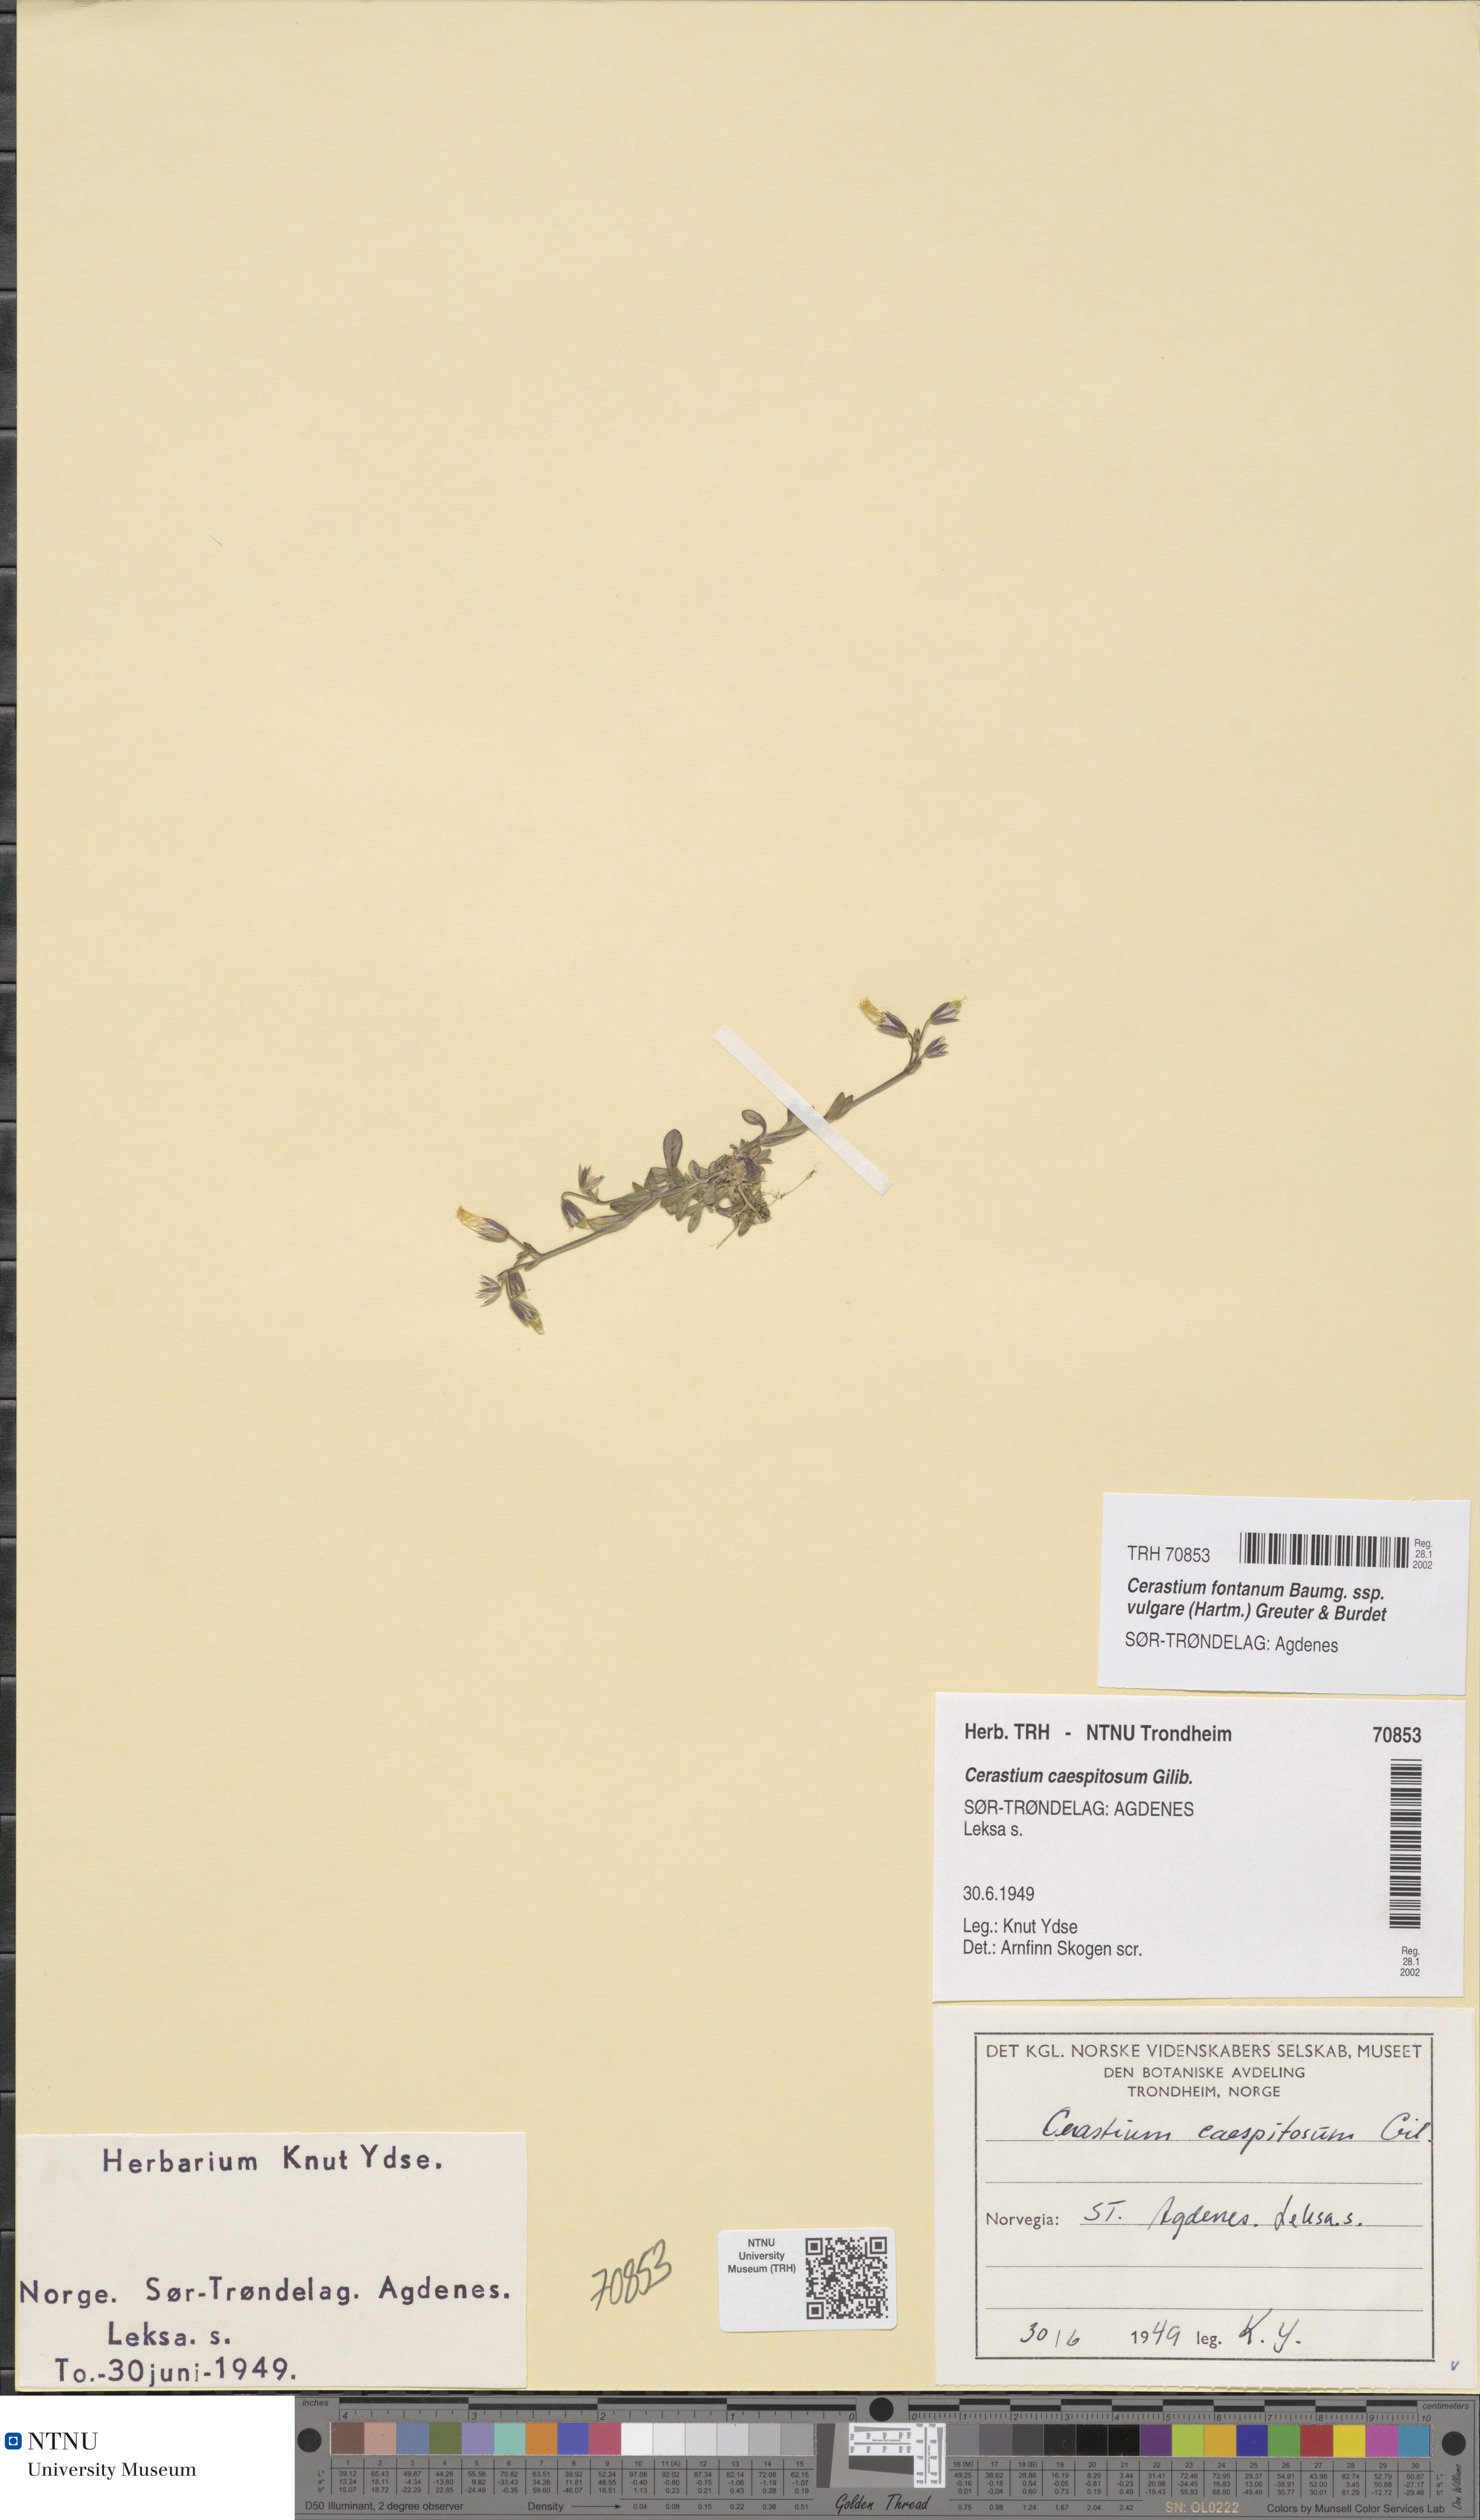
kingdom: Plantae
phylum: Tracheophyta
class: Magnoliopsida
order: Caryophyllales
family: Caryophyllaceae
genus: Cerastium
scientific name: Cerastium holosteoides
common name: Big chickweed
